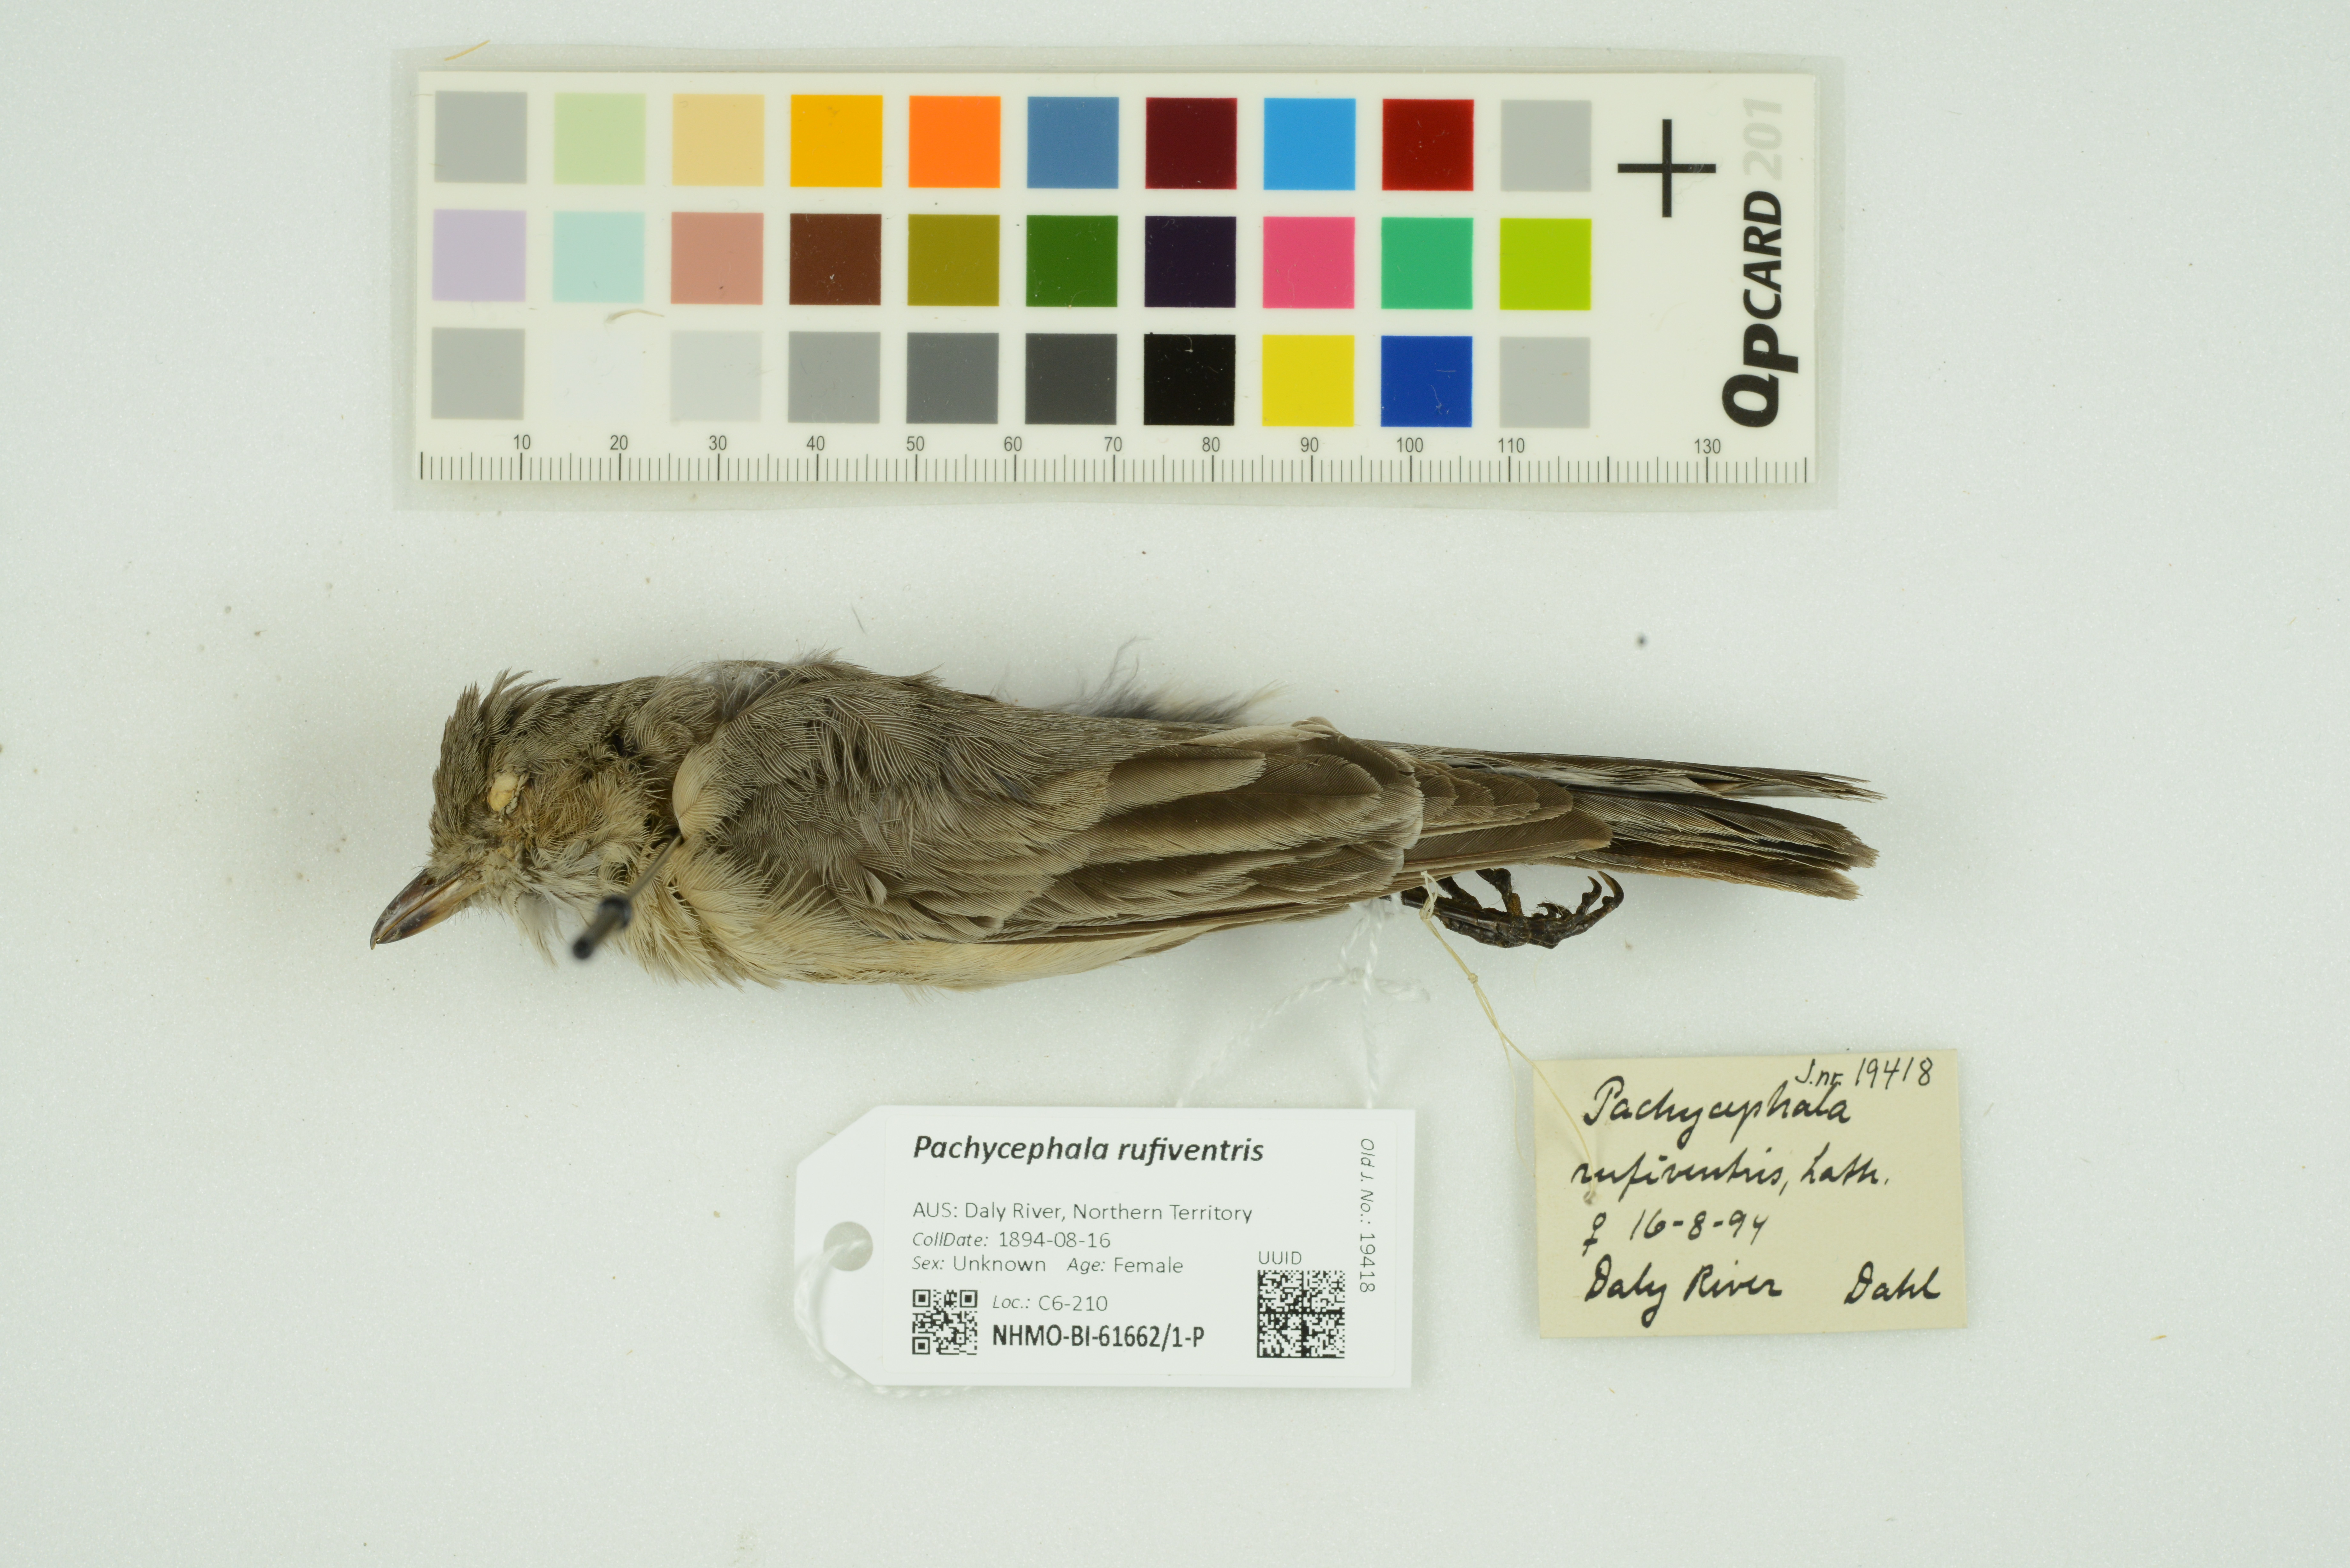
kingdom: Animalia
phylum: Chordata
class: Aves
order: Passeriformes
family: Pachycephalidae
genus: Pachycephala
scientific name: Pachycephala rufiventris
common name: Rufous whistler
